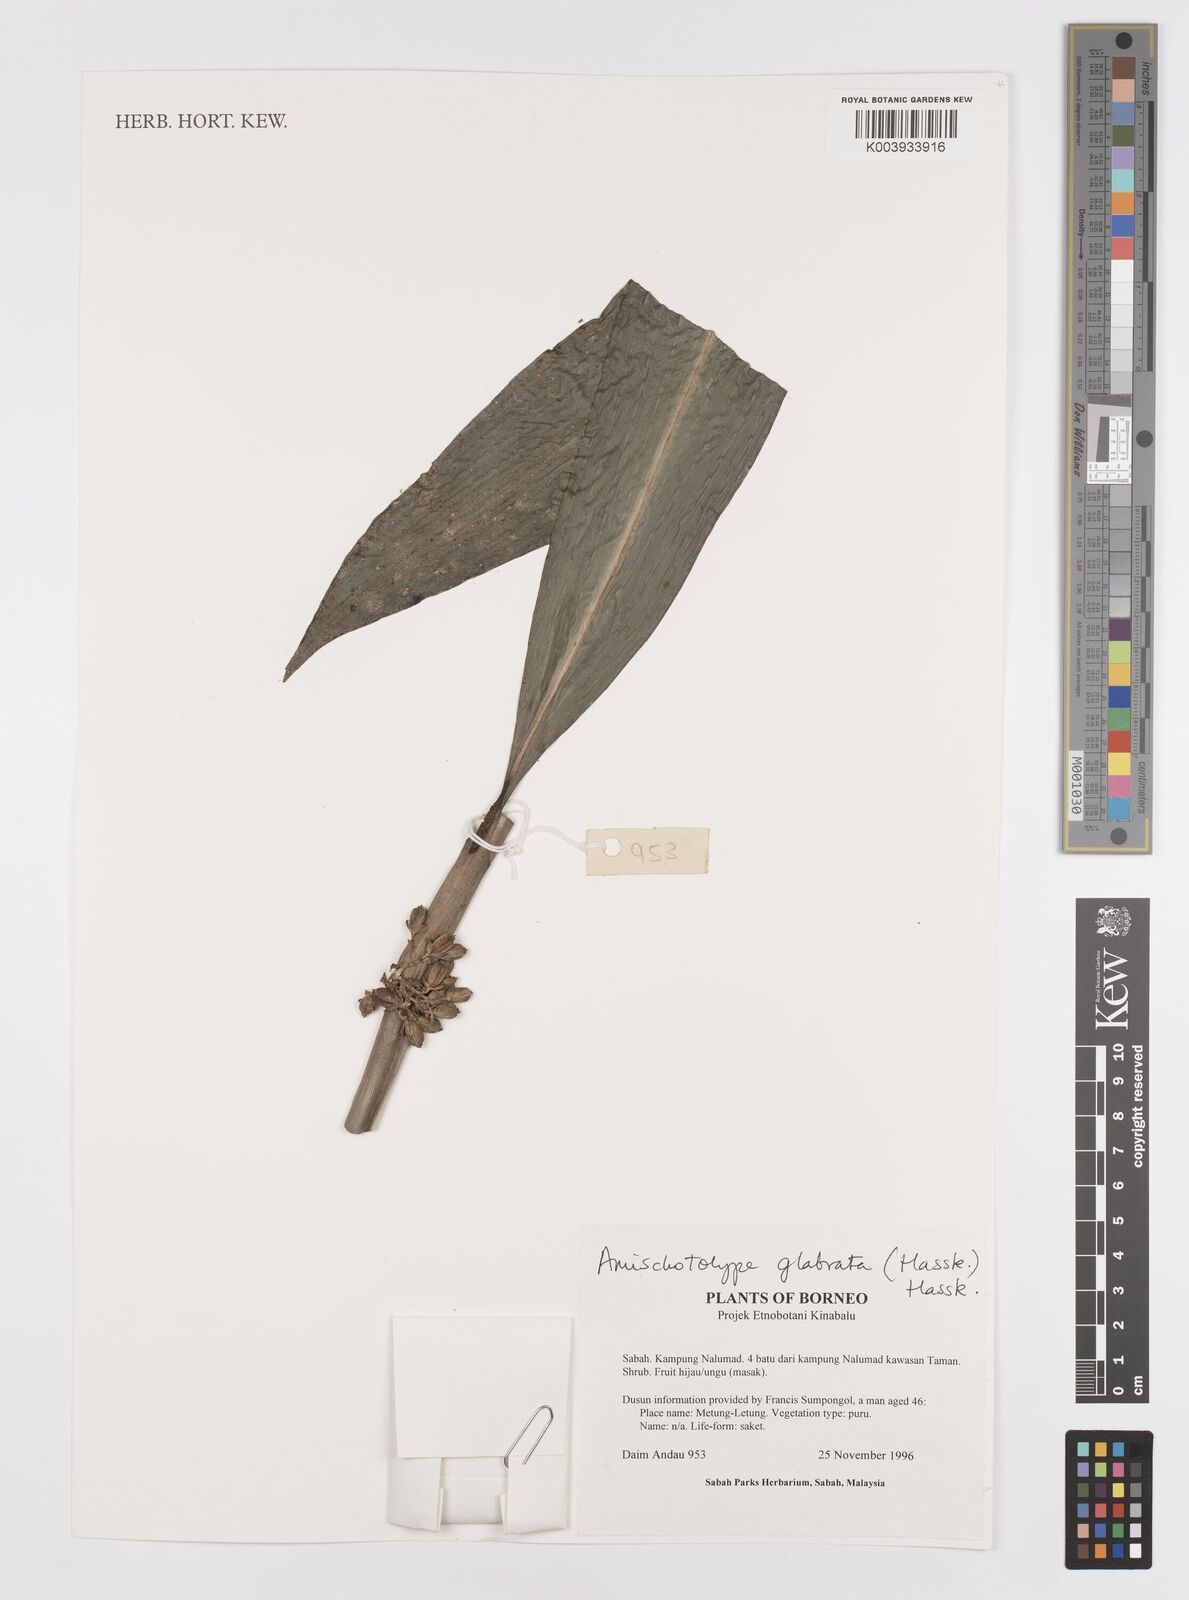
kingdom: Plantae
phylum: Tracheophyta
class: Liliopsida
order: Commelinales
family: Commelinaceae
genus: Amischotolype
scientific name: Amischotolype glabrata
